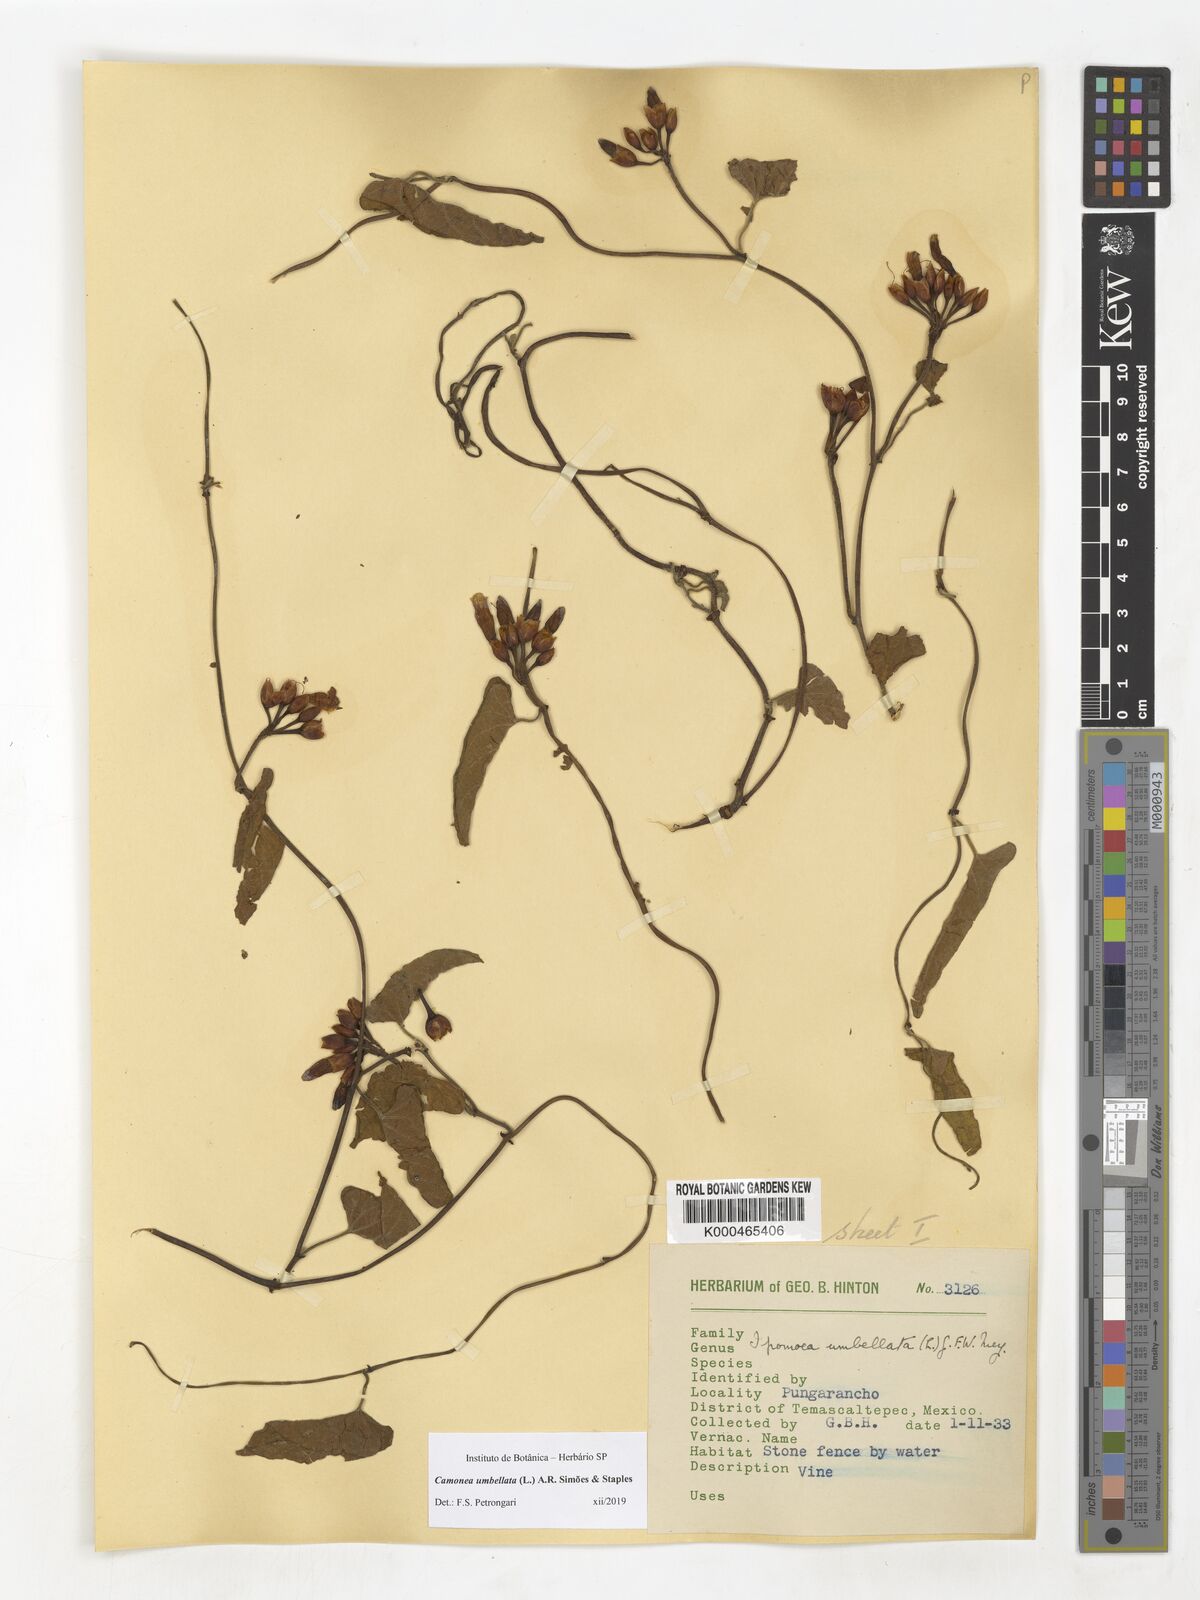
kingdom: Plantae
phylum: Tracheophyta
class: Magnoliopsida
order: Solanales
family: Convolvulaceae
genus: Camonea
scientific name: Camonea umbellata
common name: Hogvine
